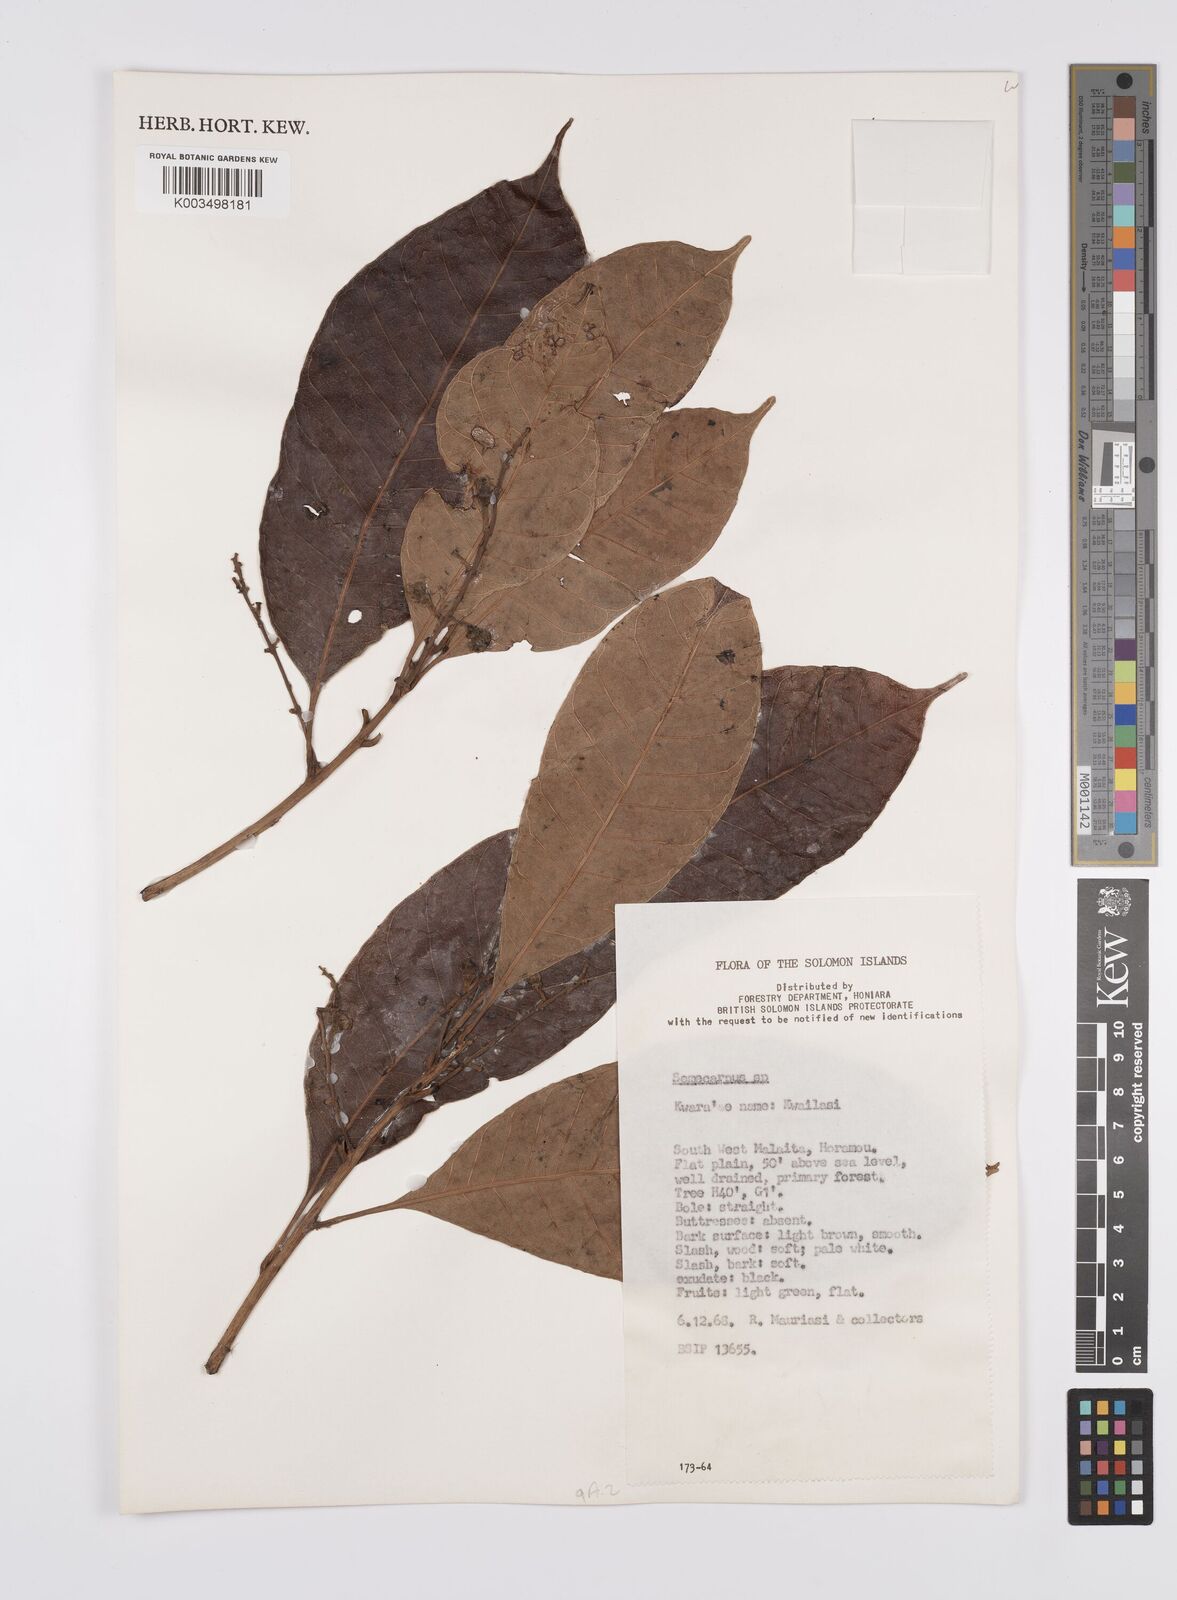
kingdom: Plantae
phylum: Tracheophyta
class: Magnoliopsida
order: Sapindales
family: Anacardiaceae
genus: Semecarpus
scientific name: Semecarpus
